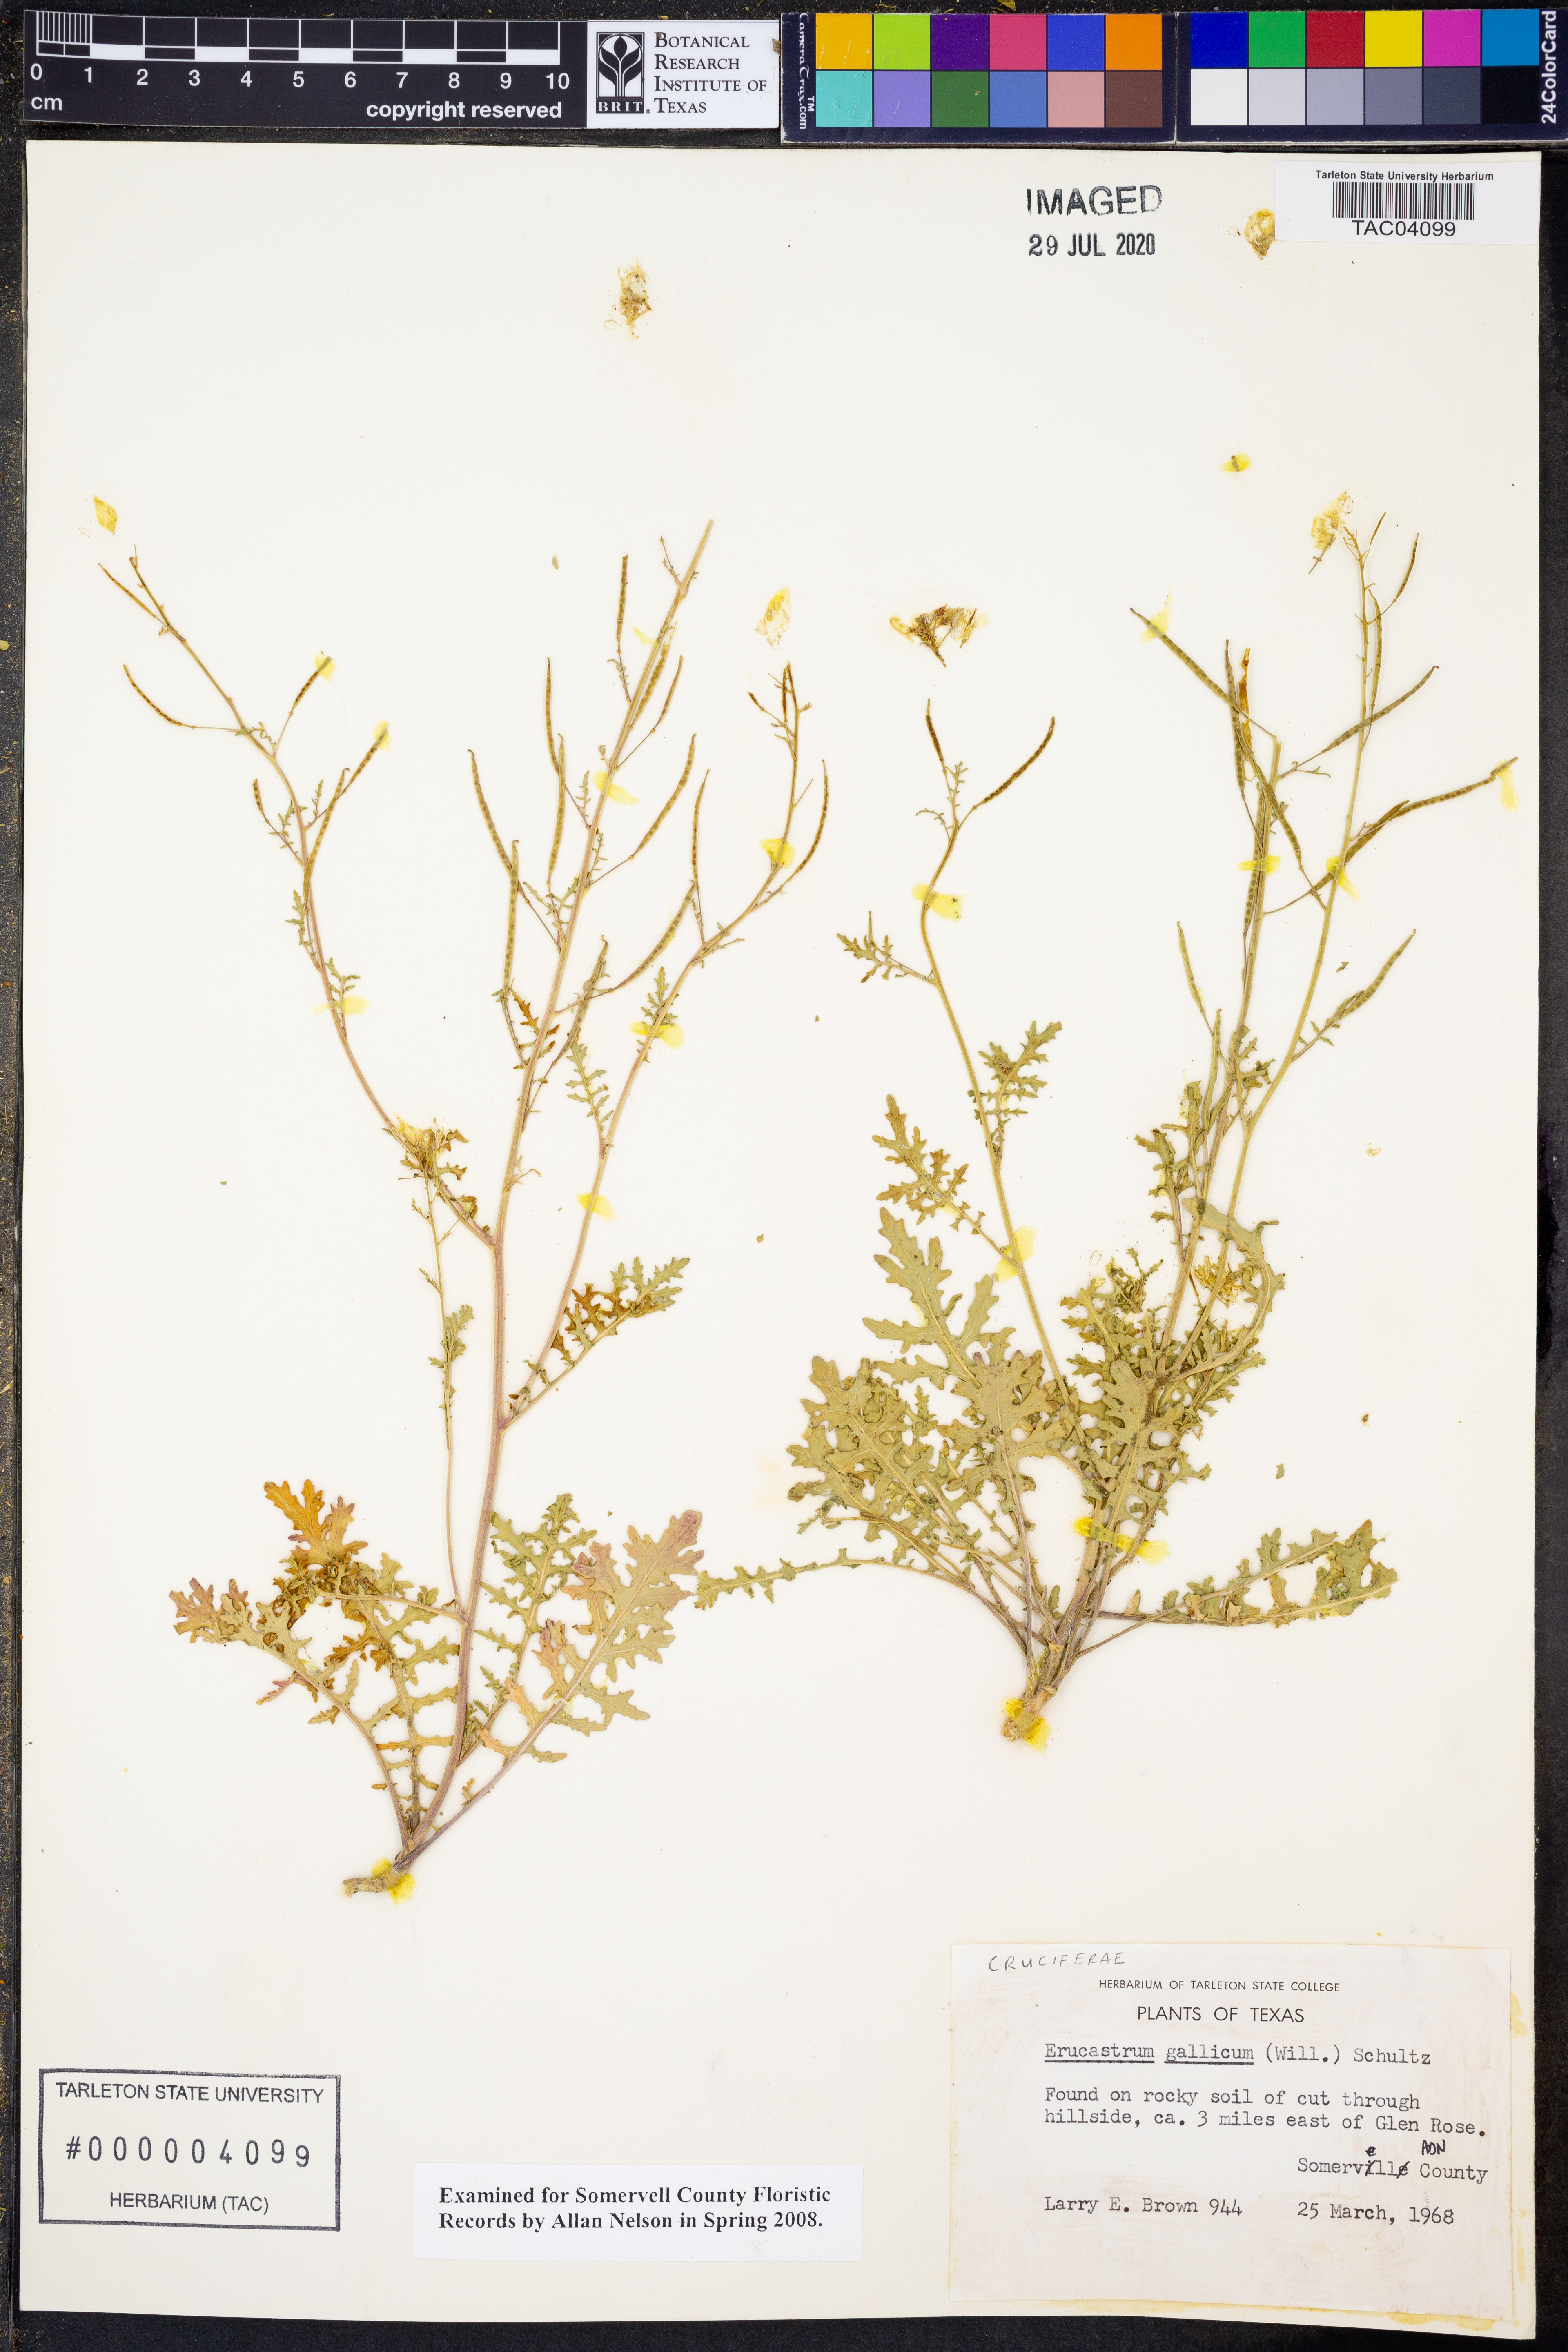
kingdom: Plantae
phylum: Tracheophyta
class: Magnoliopsida
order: Brassicales
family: Brassicaceae
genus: Erucastrum
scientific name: Erucastrum gallicum
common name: Hairy rocket
